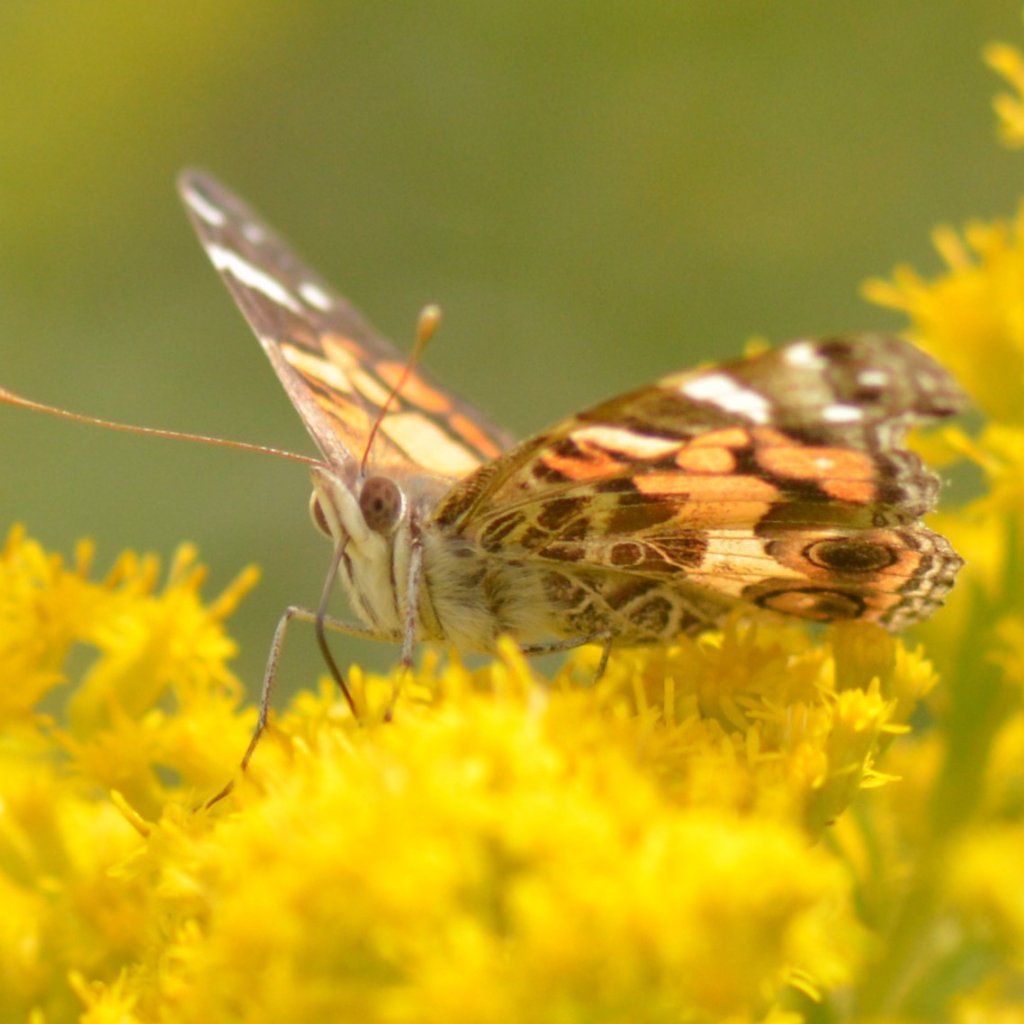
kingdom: Animalia
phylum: Arthropoda
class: Insecta
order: Lepidoptera
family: Nymphalidae
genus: Vanessa
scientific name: Vanessa virginiensis
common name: American Lady
